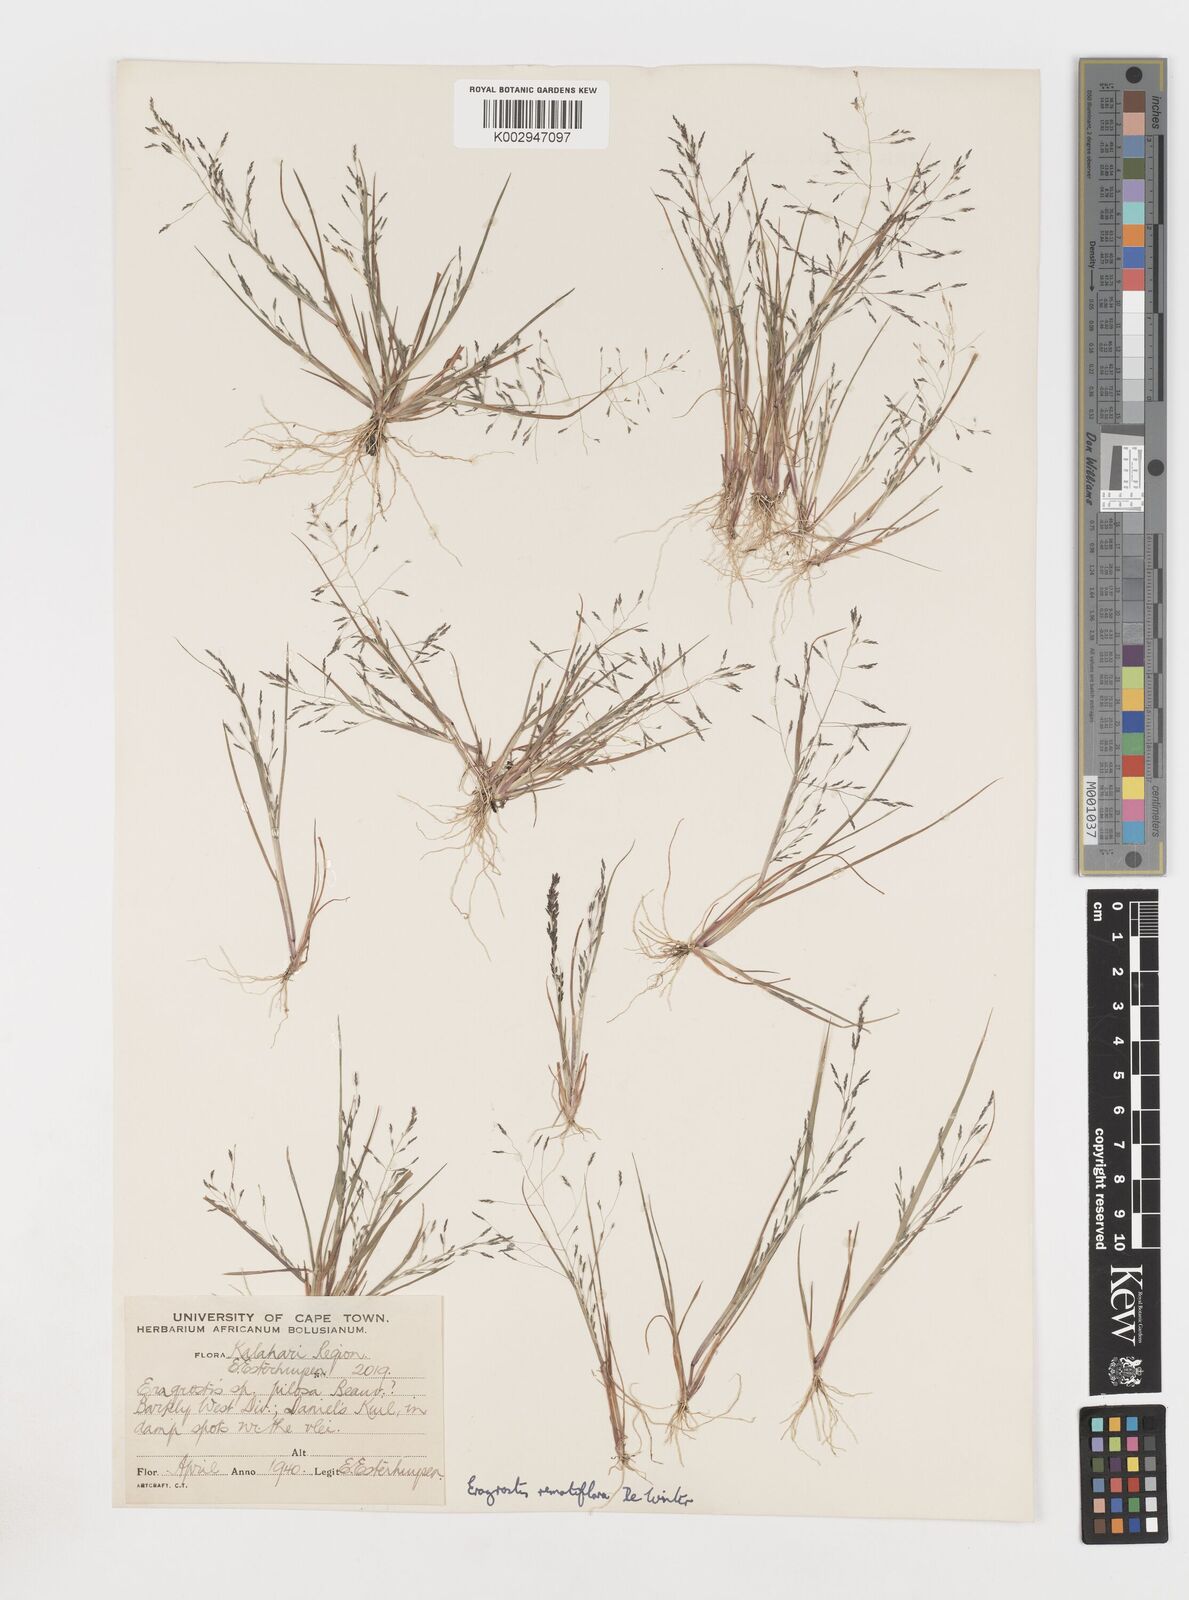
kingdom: Plantae
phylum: Tracheophyta
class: Liliopsida
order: Poales
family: Poaceae
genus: Eragrostis
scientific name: Eragrostis remotiflora
